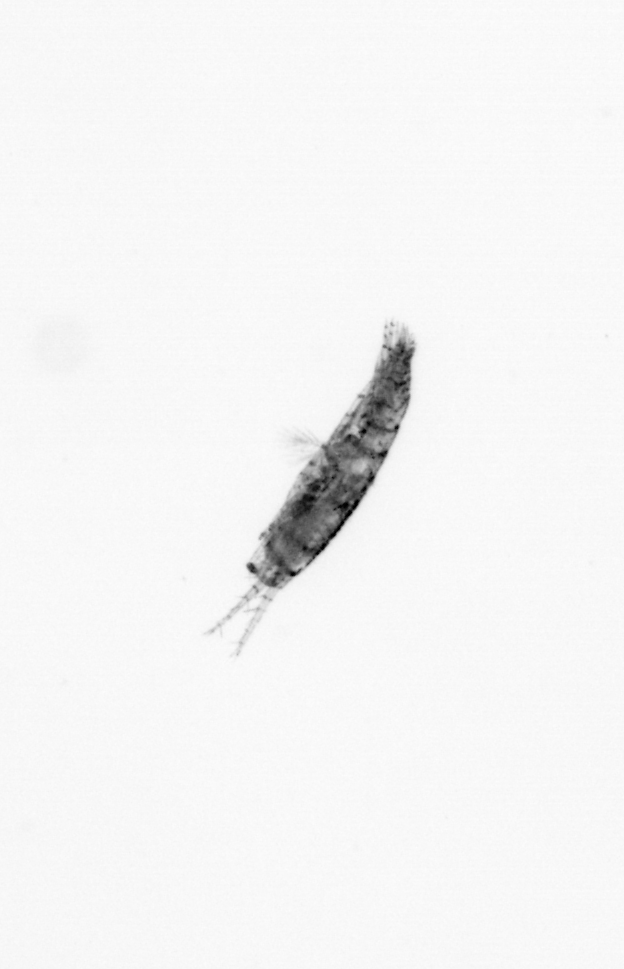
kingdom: Animalia
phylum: Arthropoda
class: Copepoda
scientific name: Copepoda
